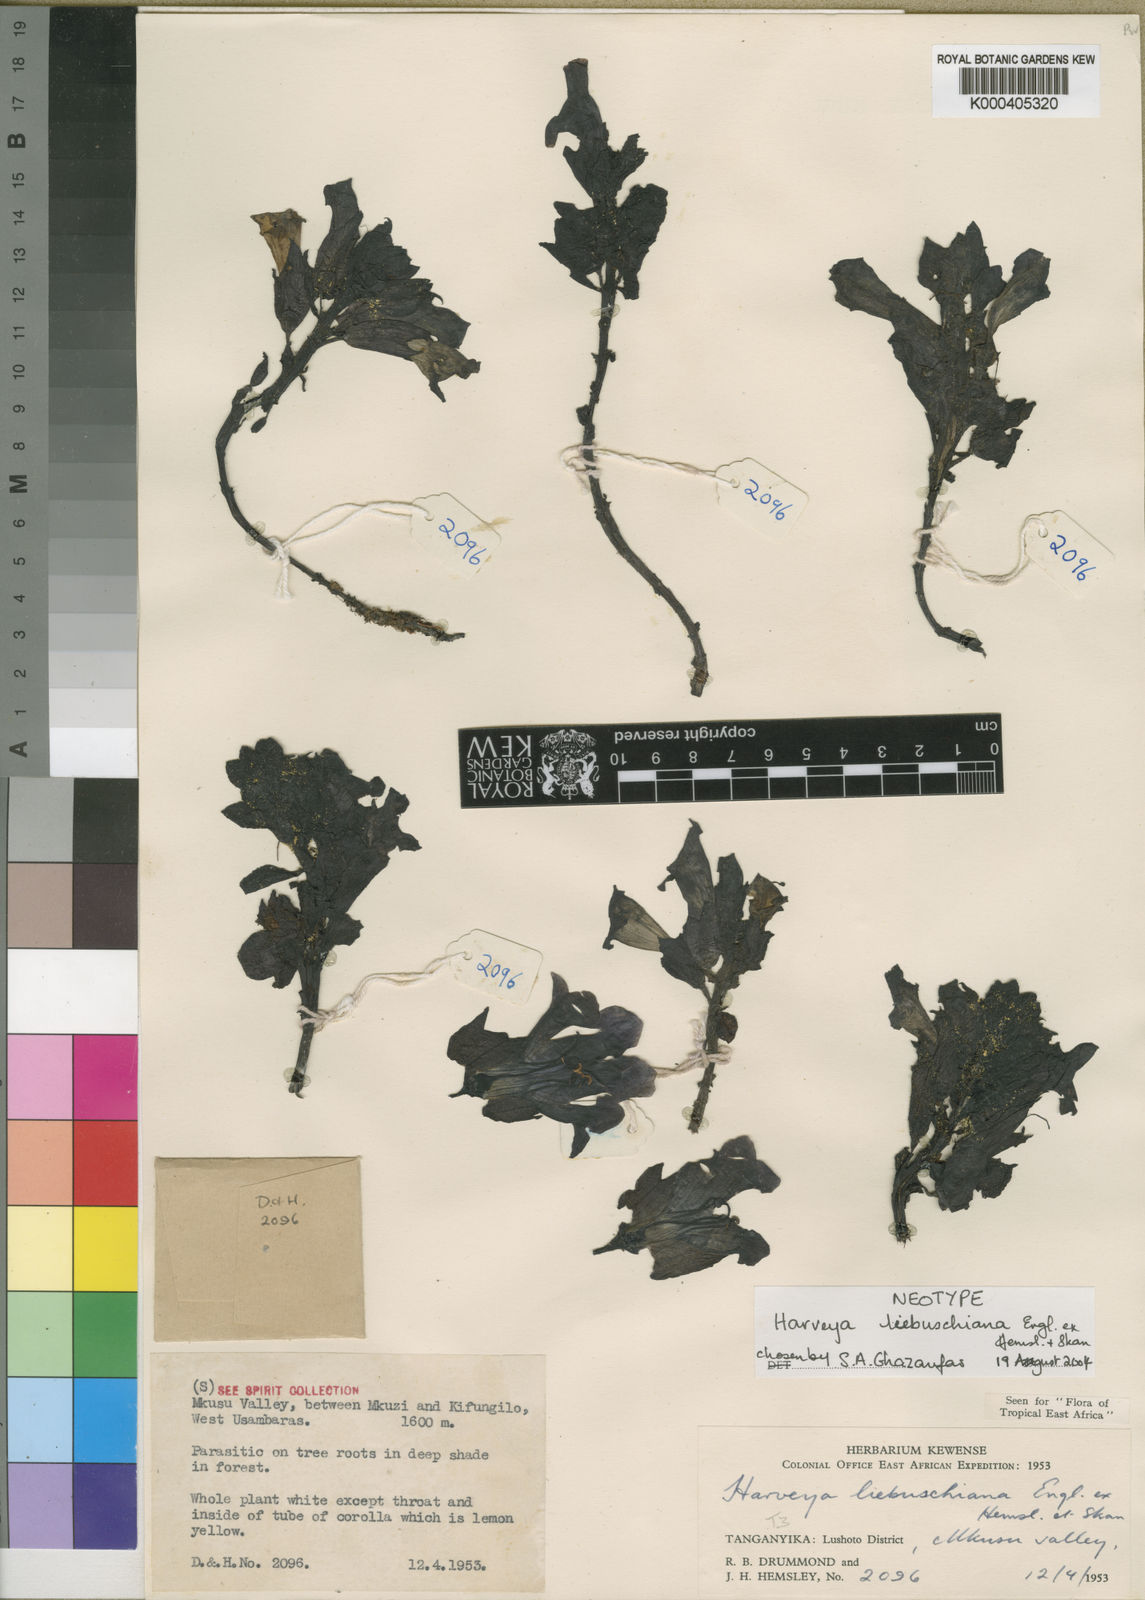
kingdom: Plantae
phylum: Tracheophyta
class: Magnoliopsida
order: Lamiales
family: Orobanchaceae
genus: Harveya
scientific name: Harveya liebuschiana
